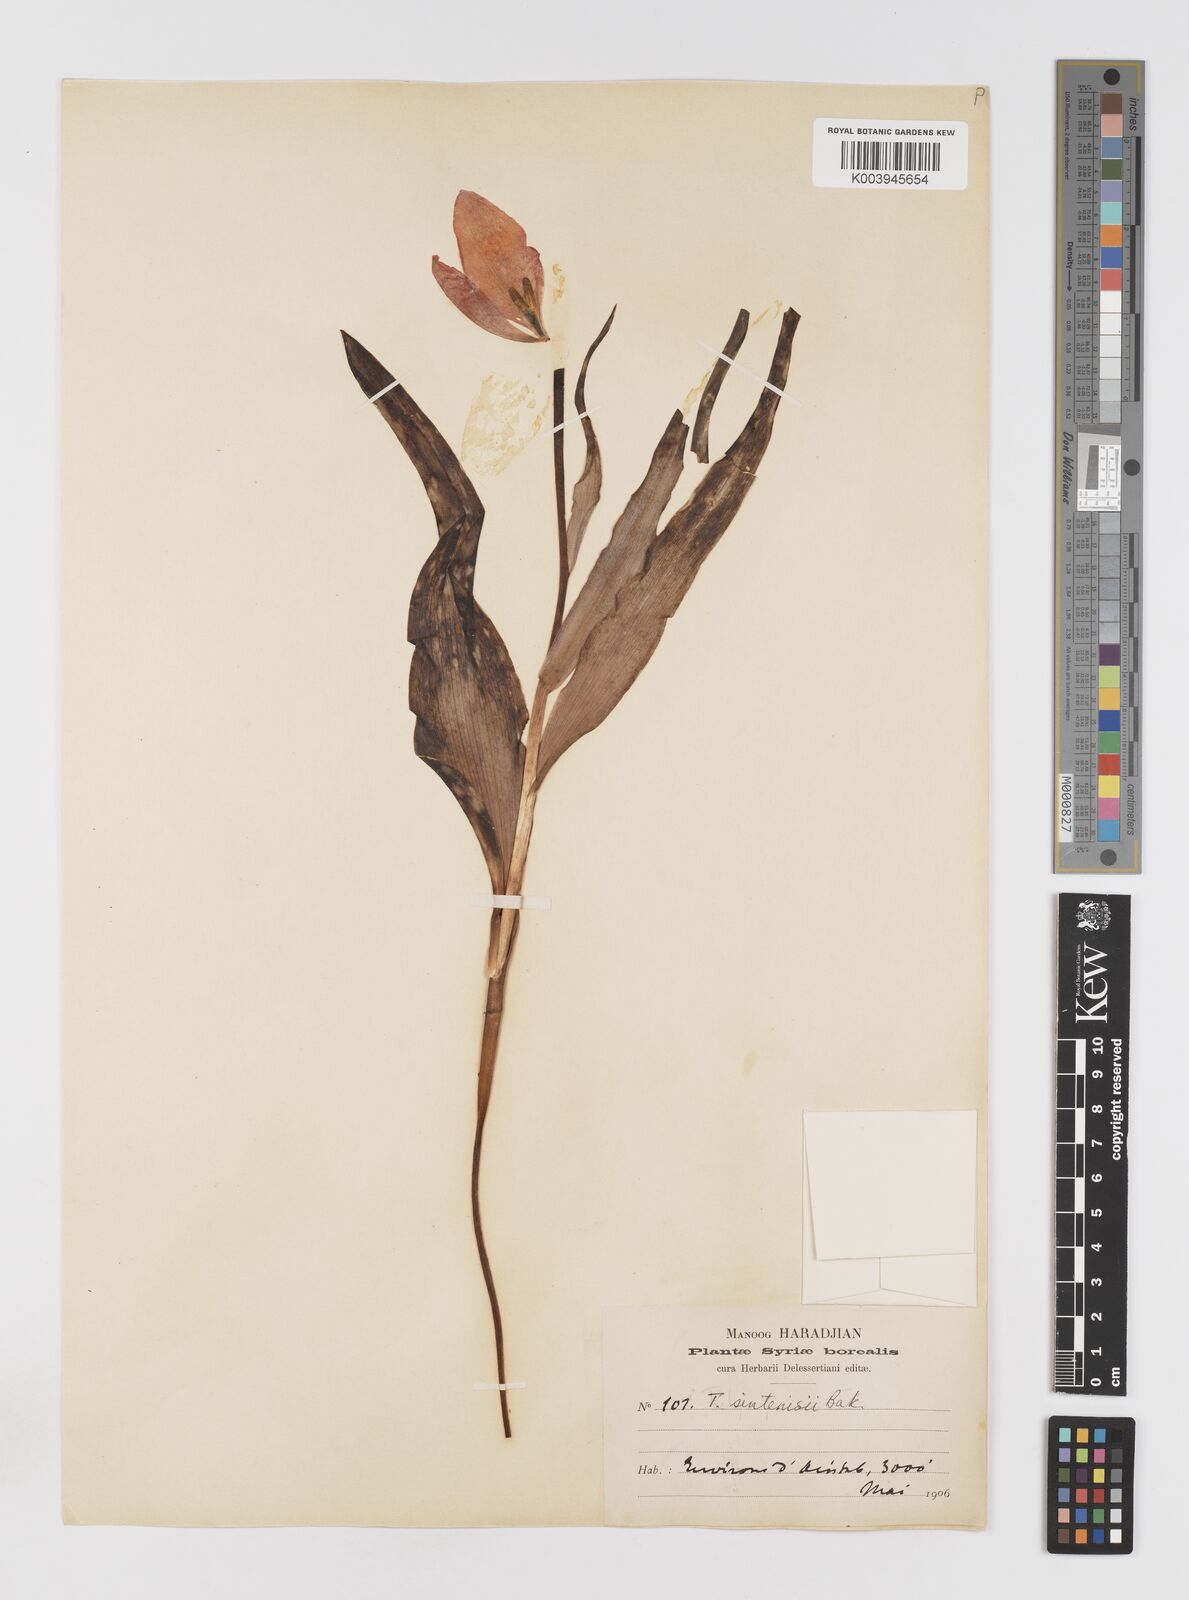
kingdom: Plantae
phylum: Tracheophyta
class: Liliopsida
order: Liliales
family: Liliaceae
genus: Tulipa
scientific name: Tulipa aleppensis
